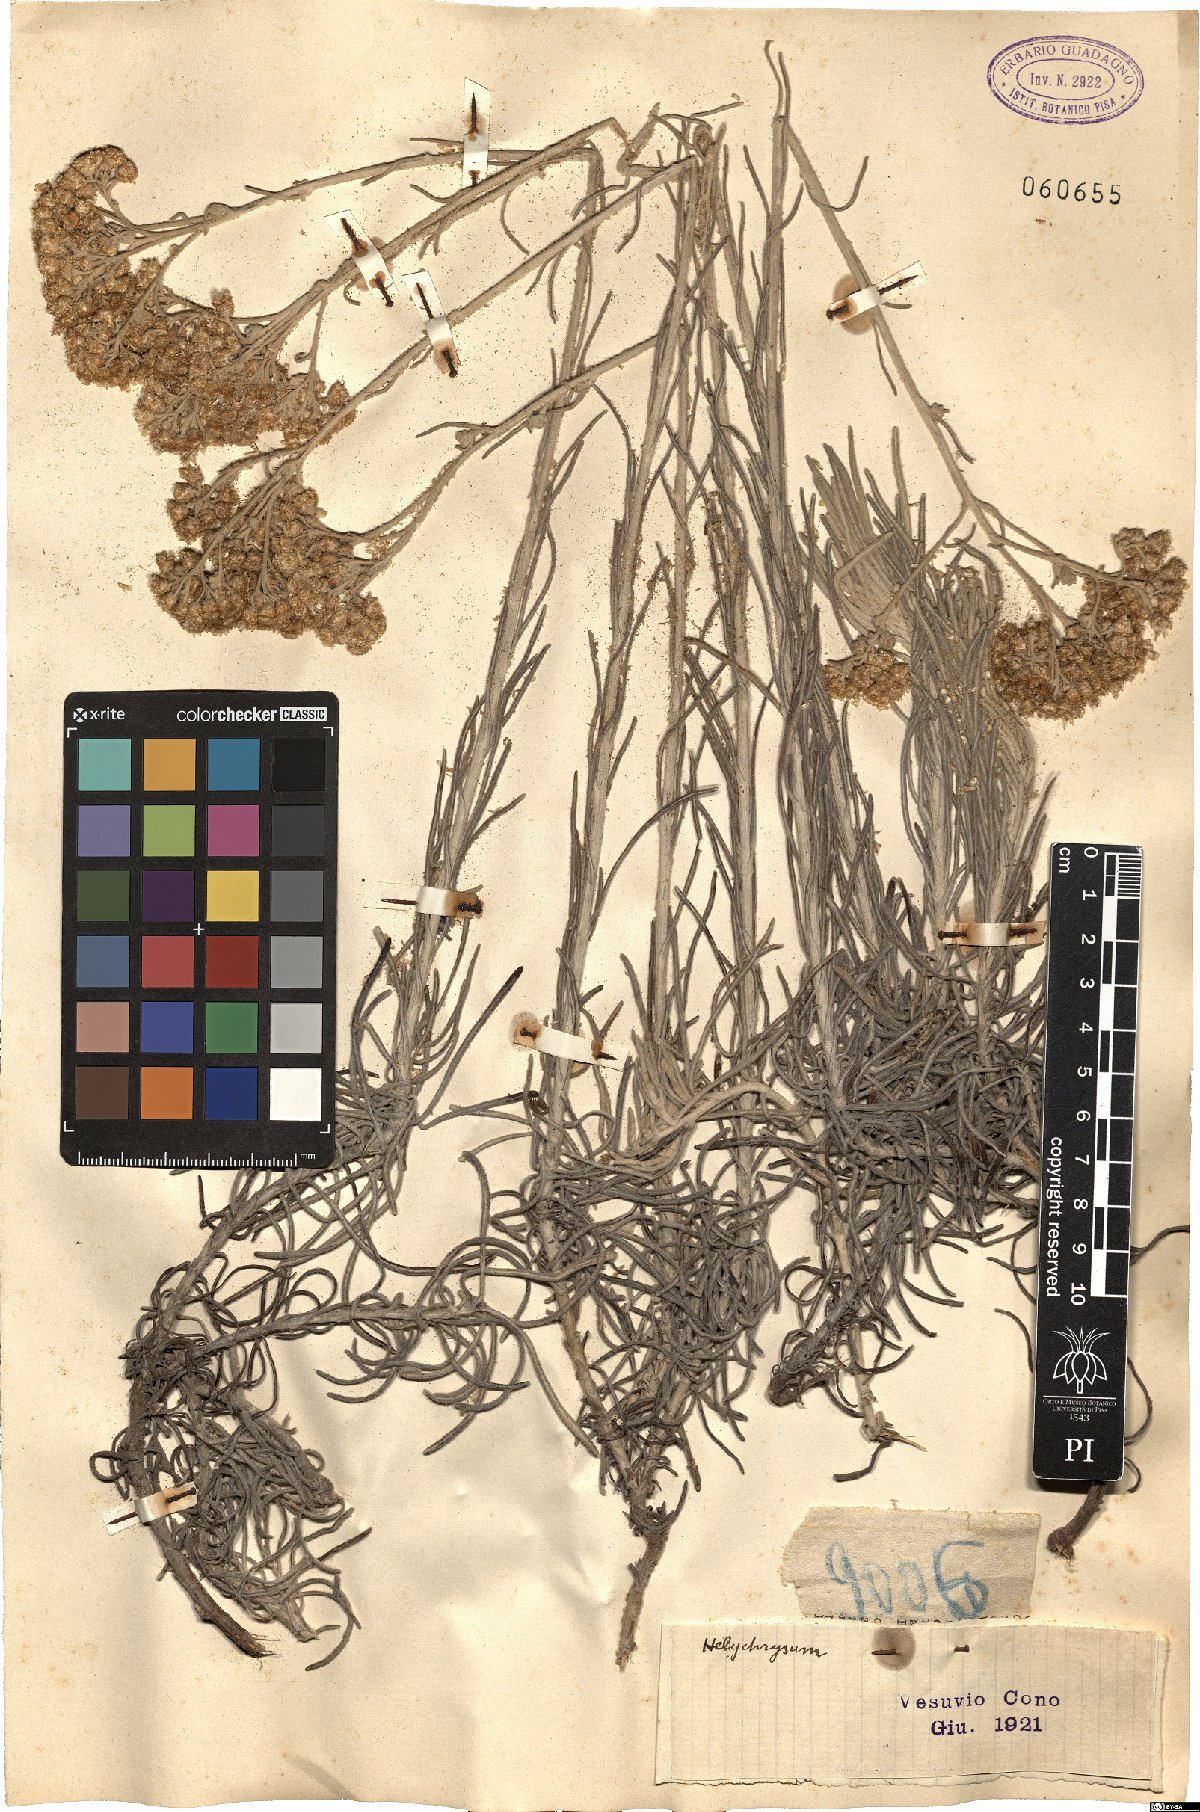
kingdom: Plantae
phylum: Tracheophyta
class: Magnoliopsida
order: Asterales
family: Asteraceae
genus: Helichrysum
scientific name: Helichrysum
